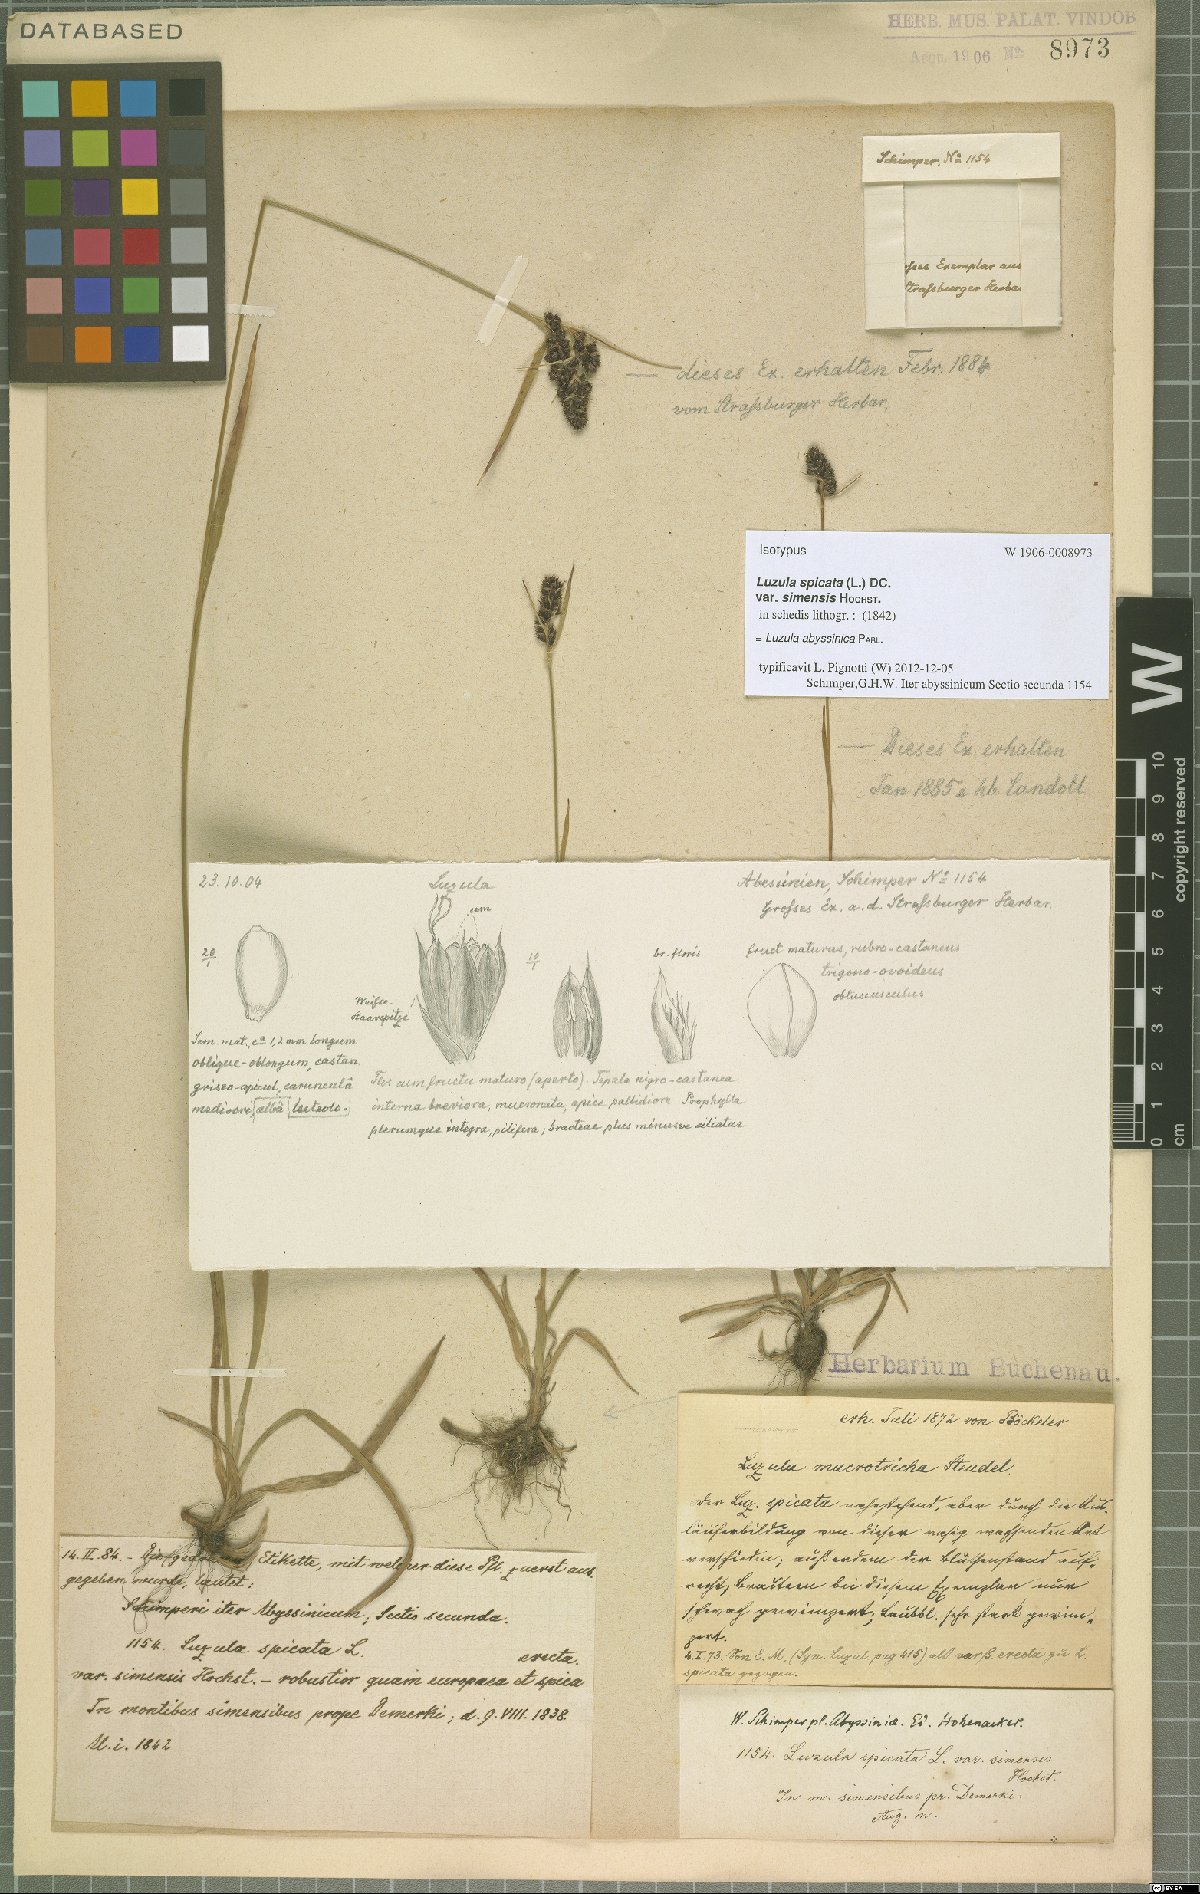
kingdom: Plantae
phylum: Tracheophyta
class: Liliopsida
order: Poales
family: Juncaceae
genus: Luzula
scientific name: Luzula abyssinica
